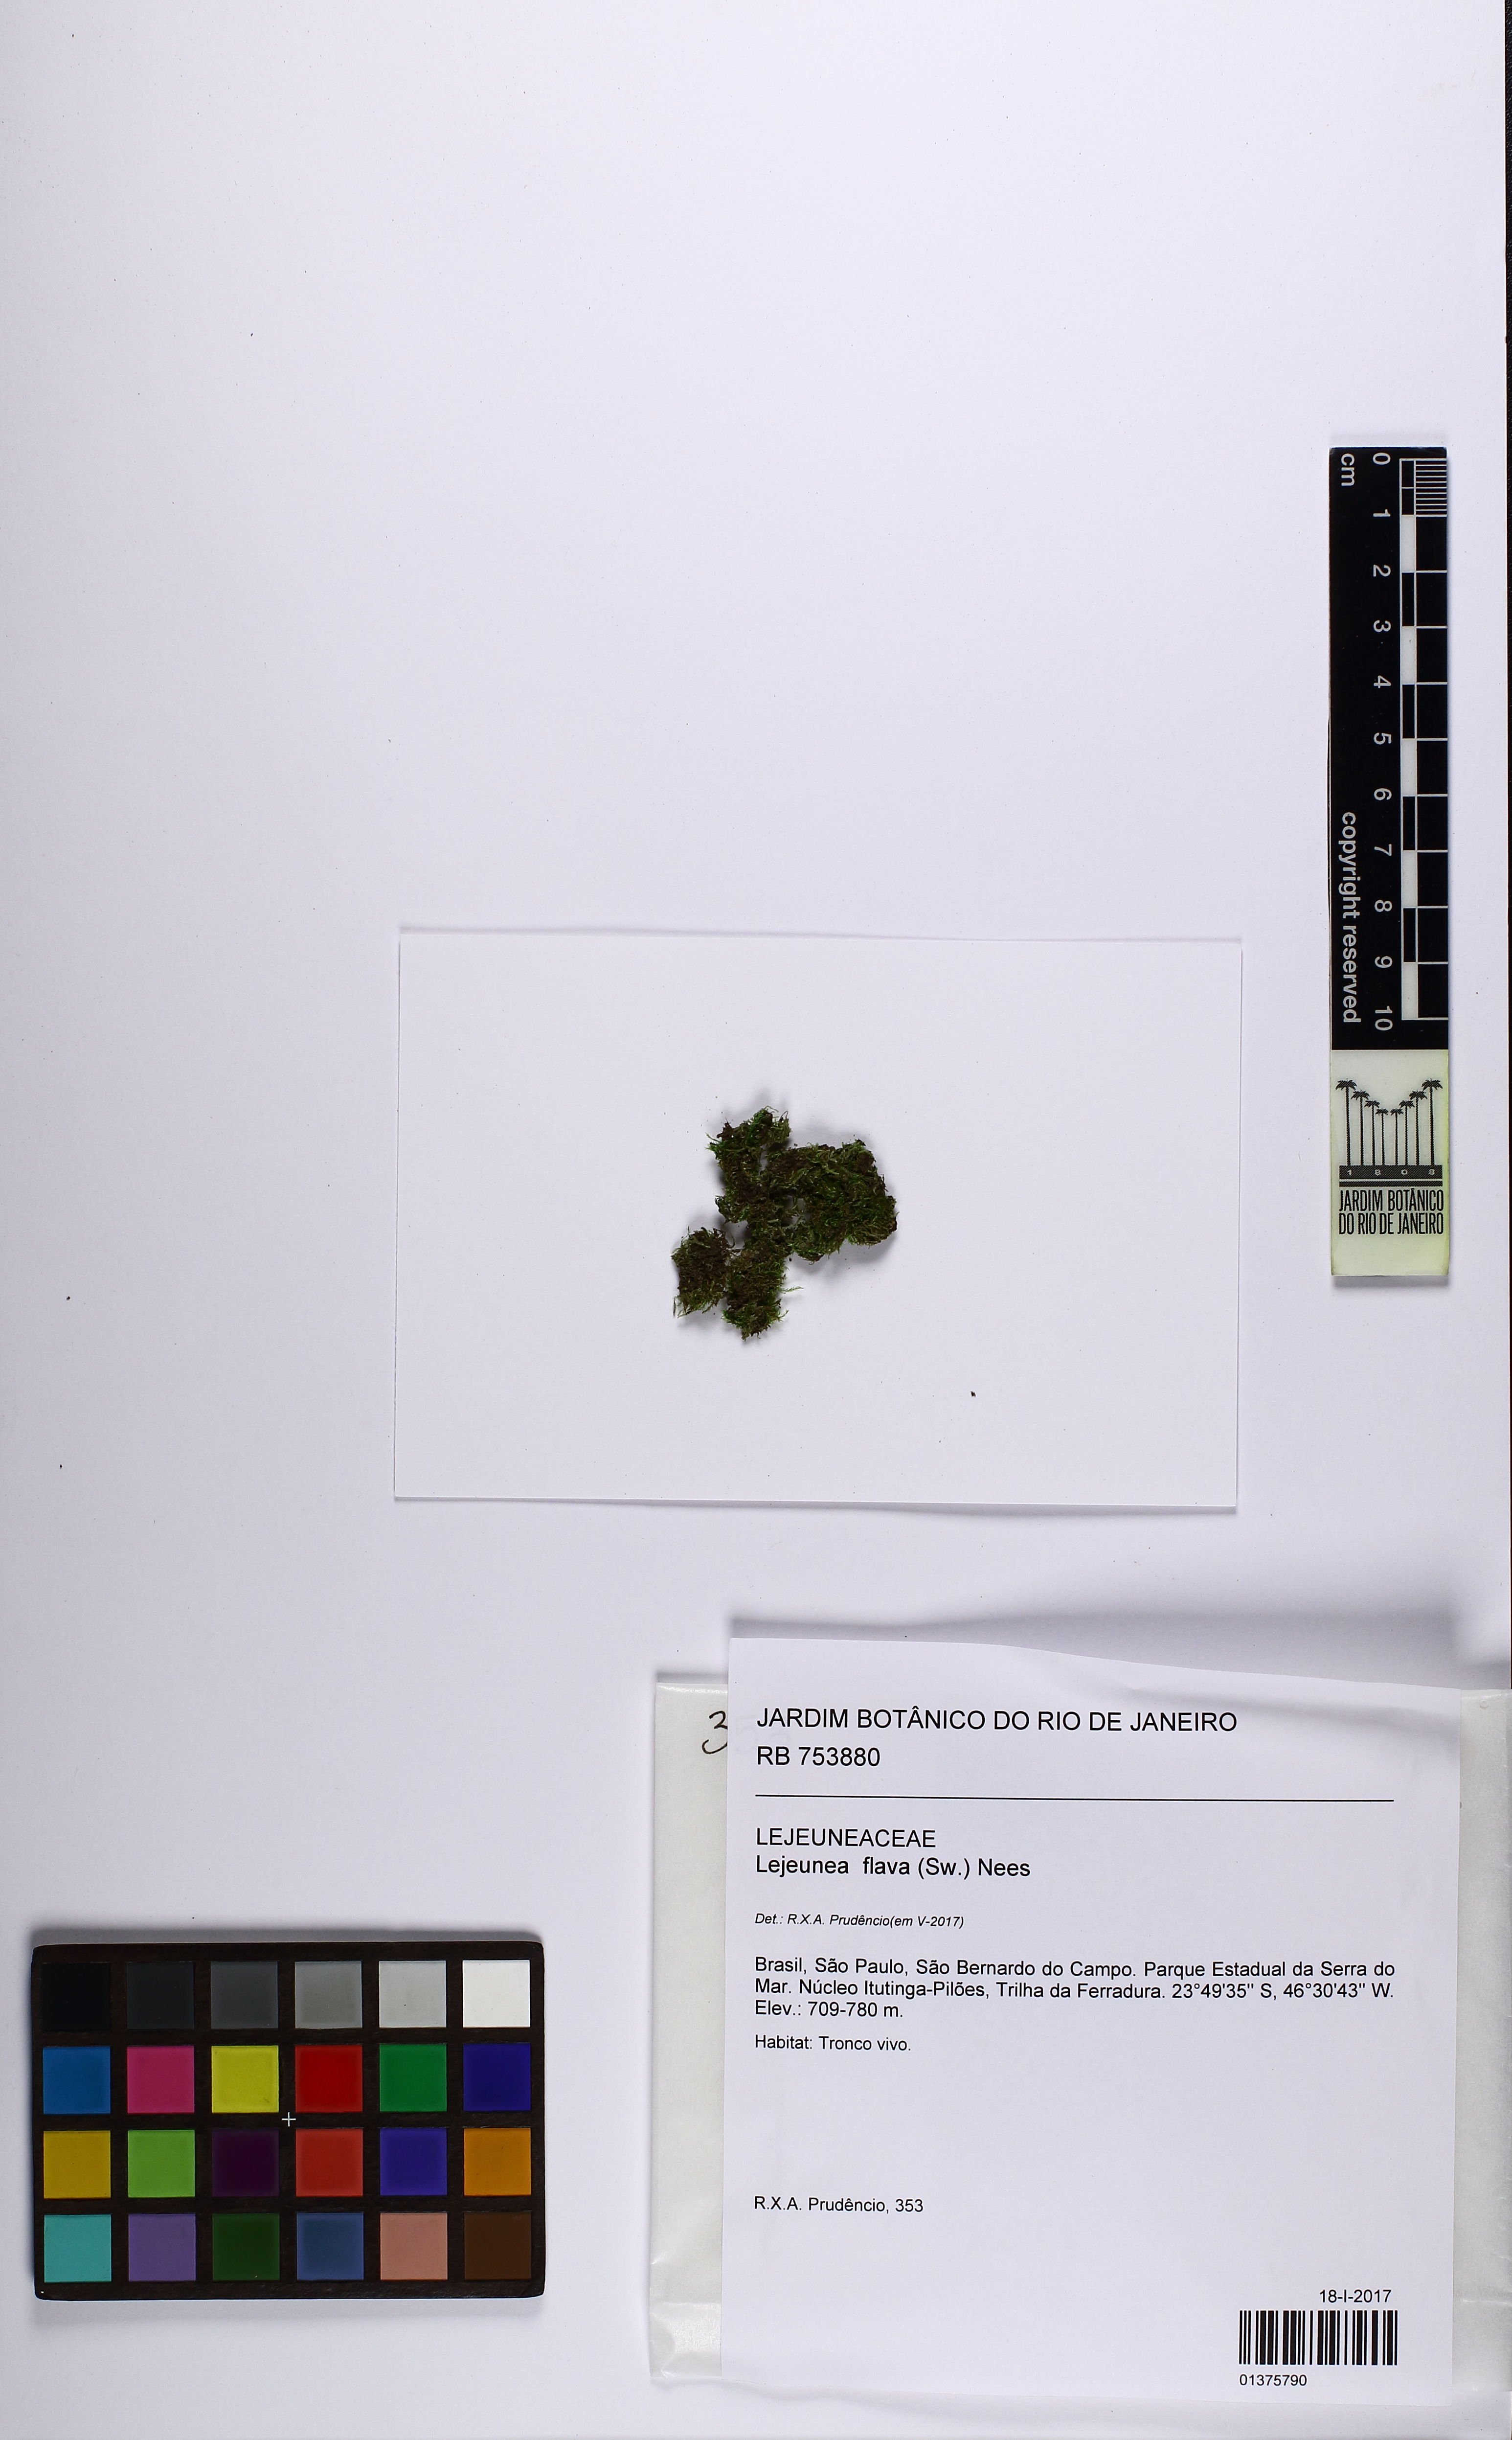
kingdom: Plantae
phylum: Marchantiophyta
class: Jungermanniopsida
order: Porellales
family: Lejeuneaceae
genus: Lejeunea
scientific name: Lejeunea flava
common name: Yellow pouncewort
